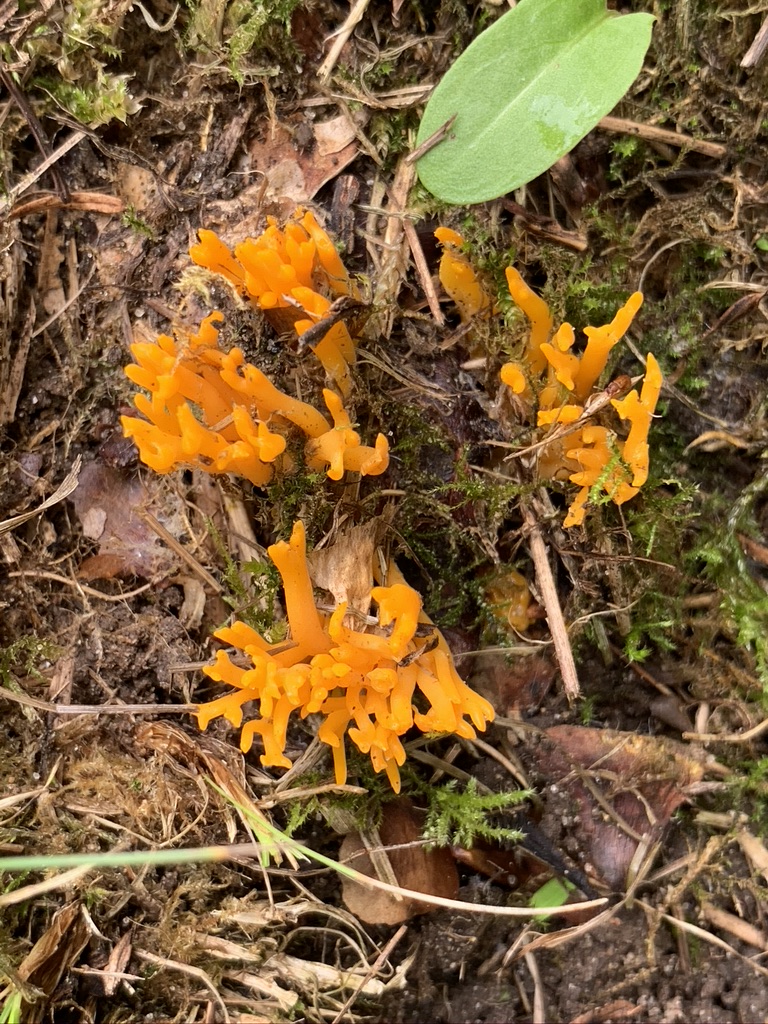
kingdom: Fungi
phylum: Basidiomycota
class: Dacrymycetes
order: Dacrymycetales
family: Dacrymycetaceae
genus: Calocera
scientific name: Calocera viscosa
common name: almindelig guldgaffel
